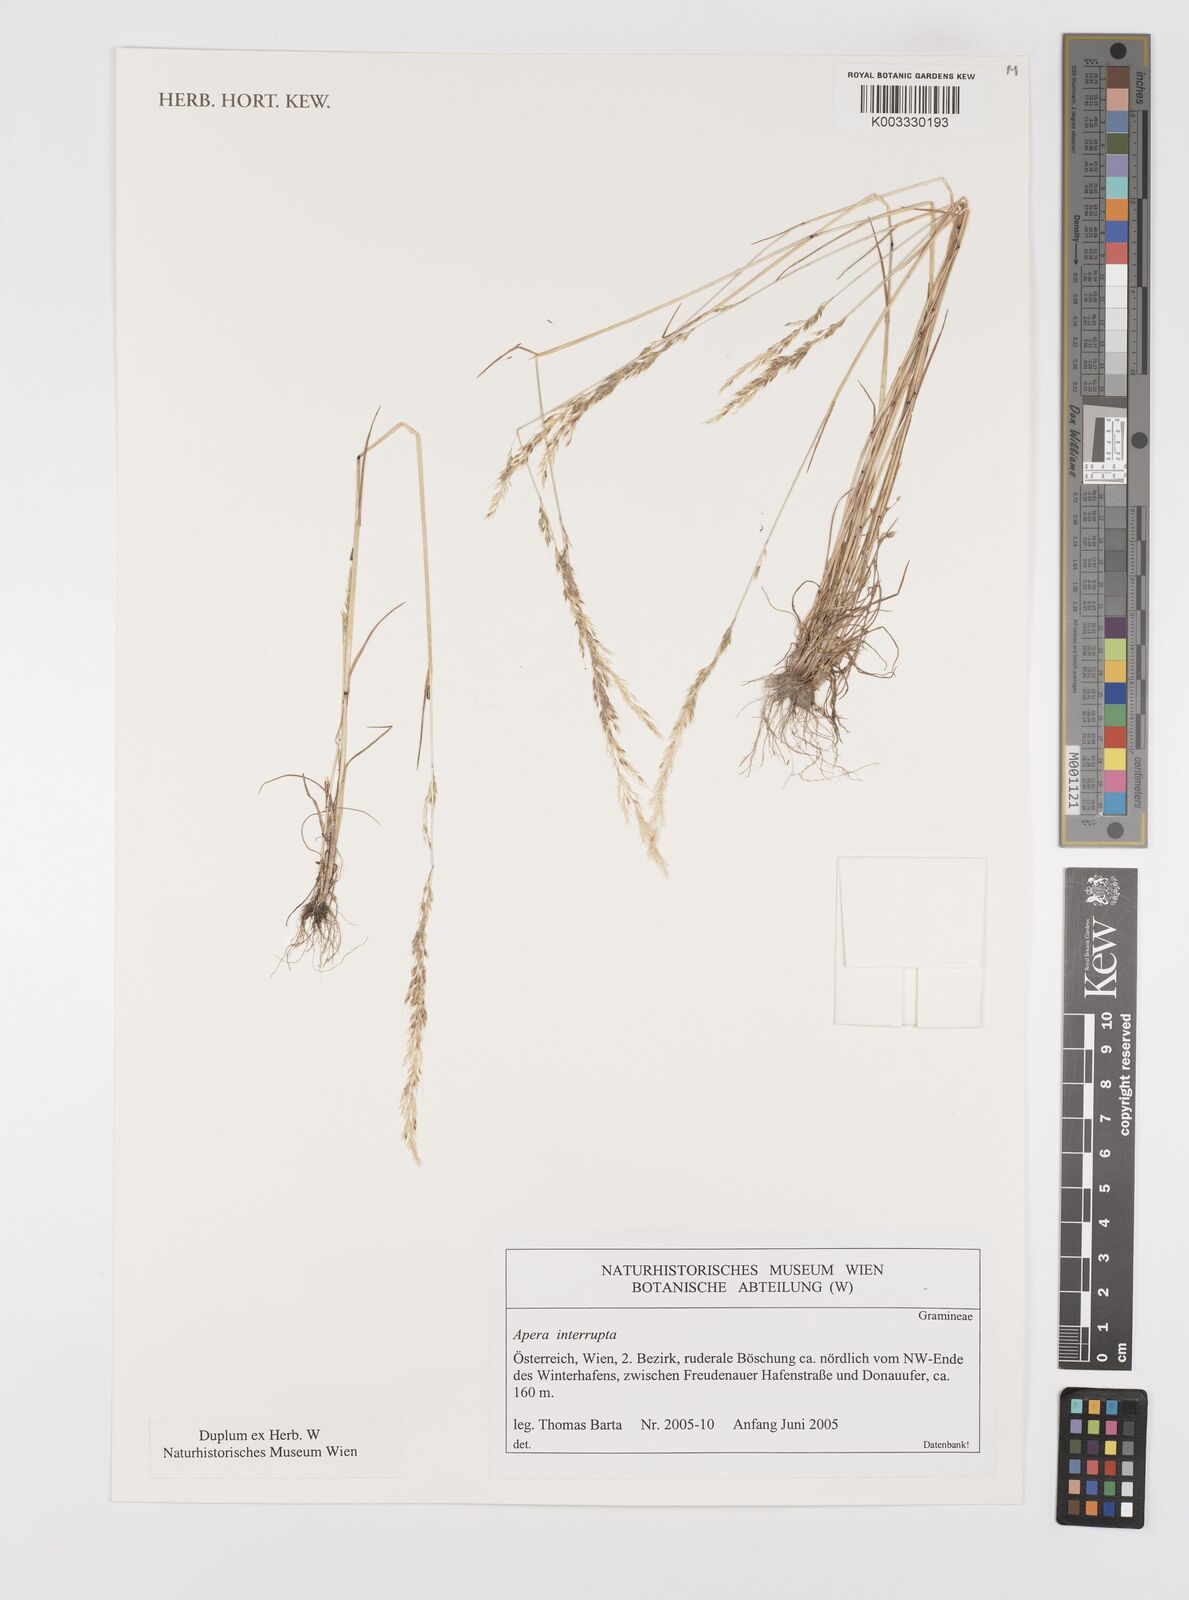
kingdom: Plantae
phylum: Tracheophyta
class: Liliopsida
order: Poales
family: Poaceae
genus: Apera
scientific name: Apera interrupta
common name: Dense silky-bent
